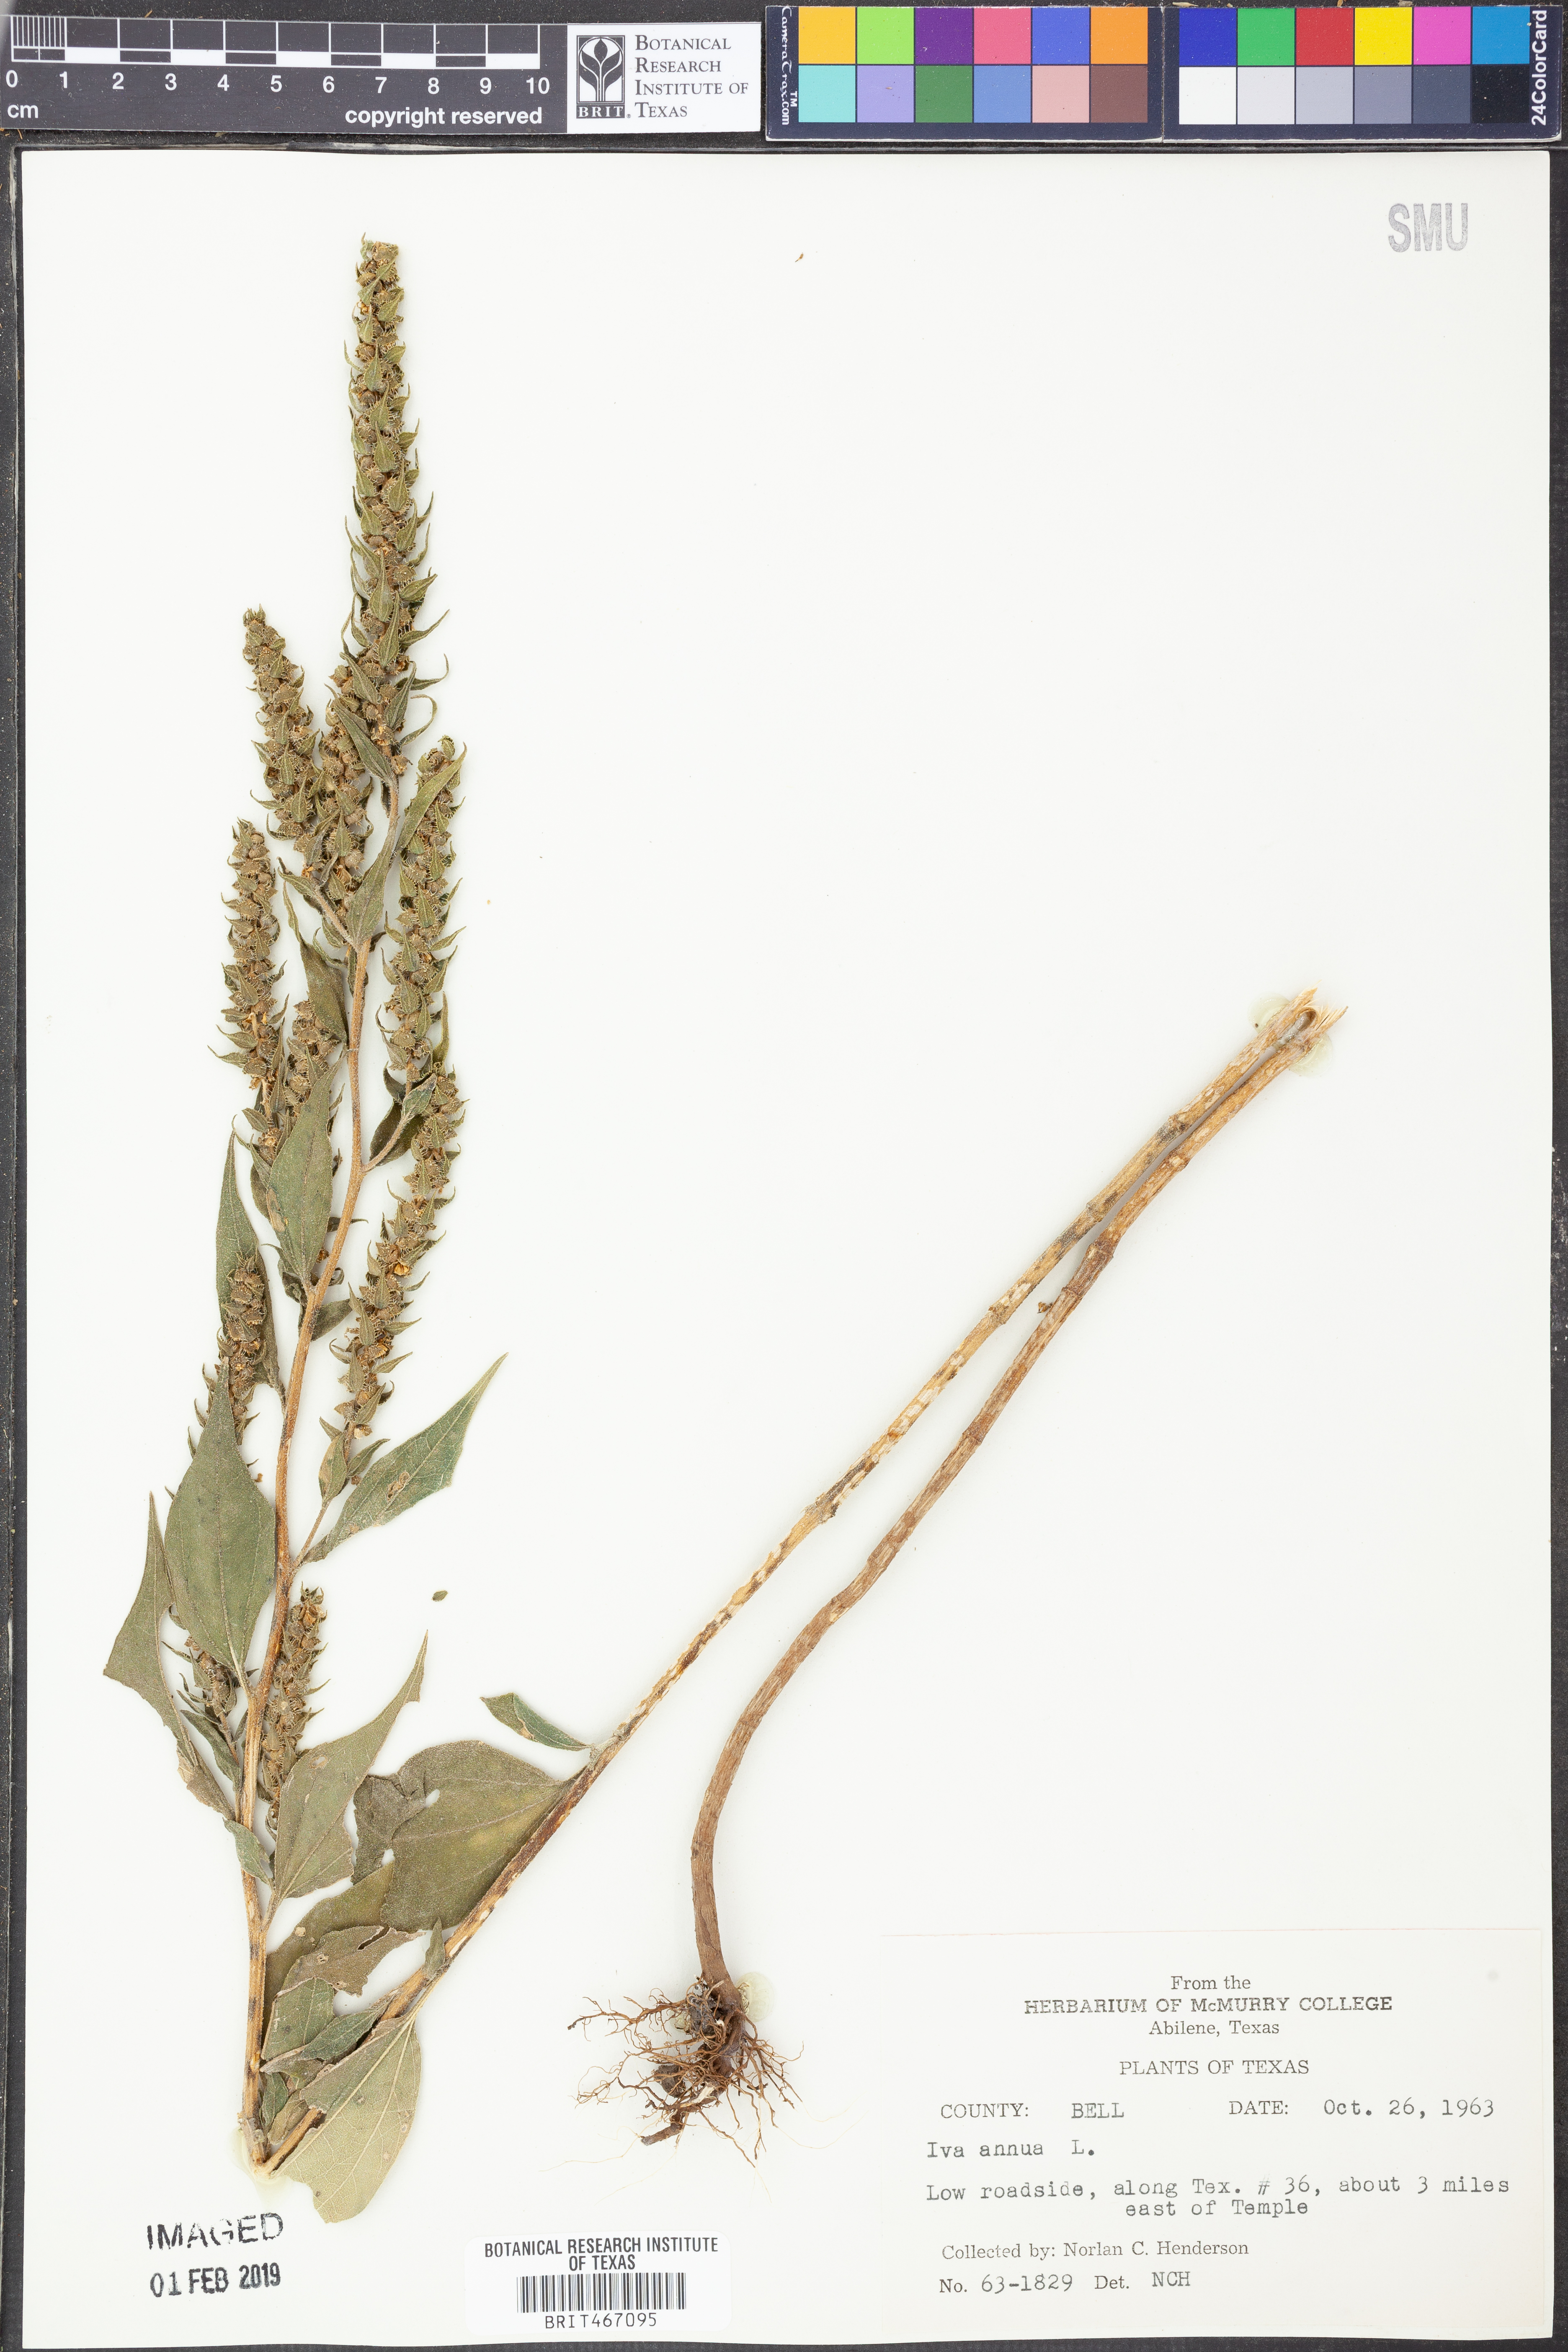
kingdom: Plantae
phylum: Tracheophyta
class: Magnoliopsida
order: Asterales
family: Asteraceae
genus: Iva
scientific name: Iva annua
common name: Marsh-elder
